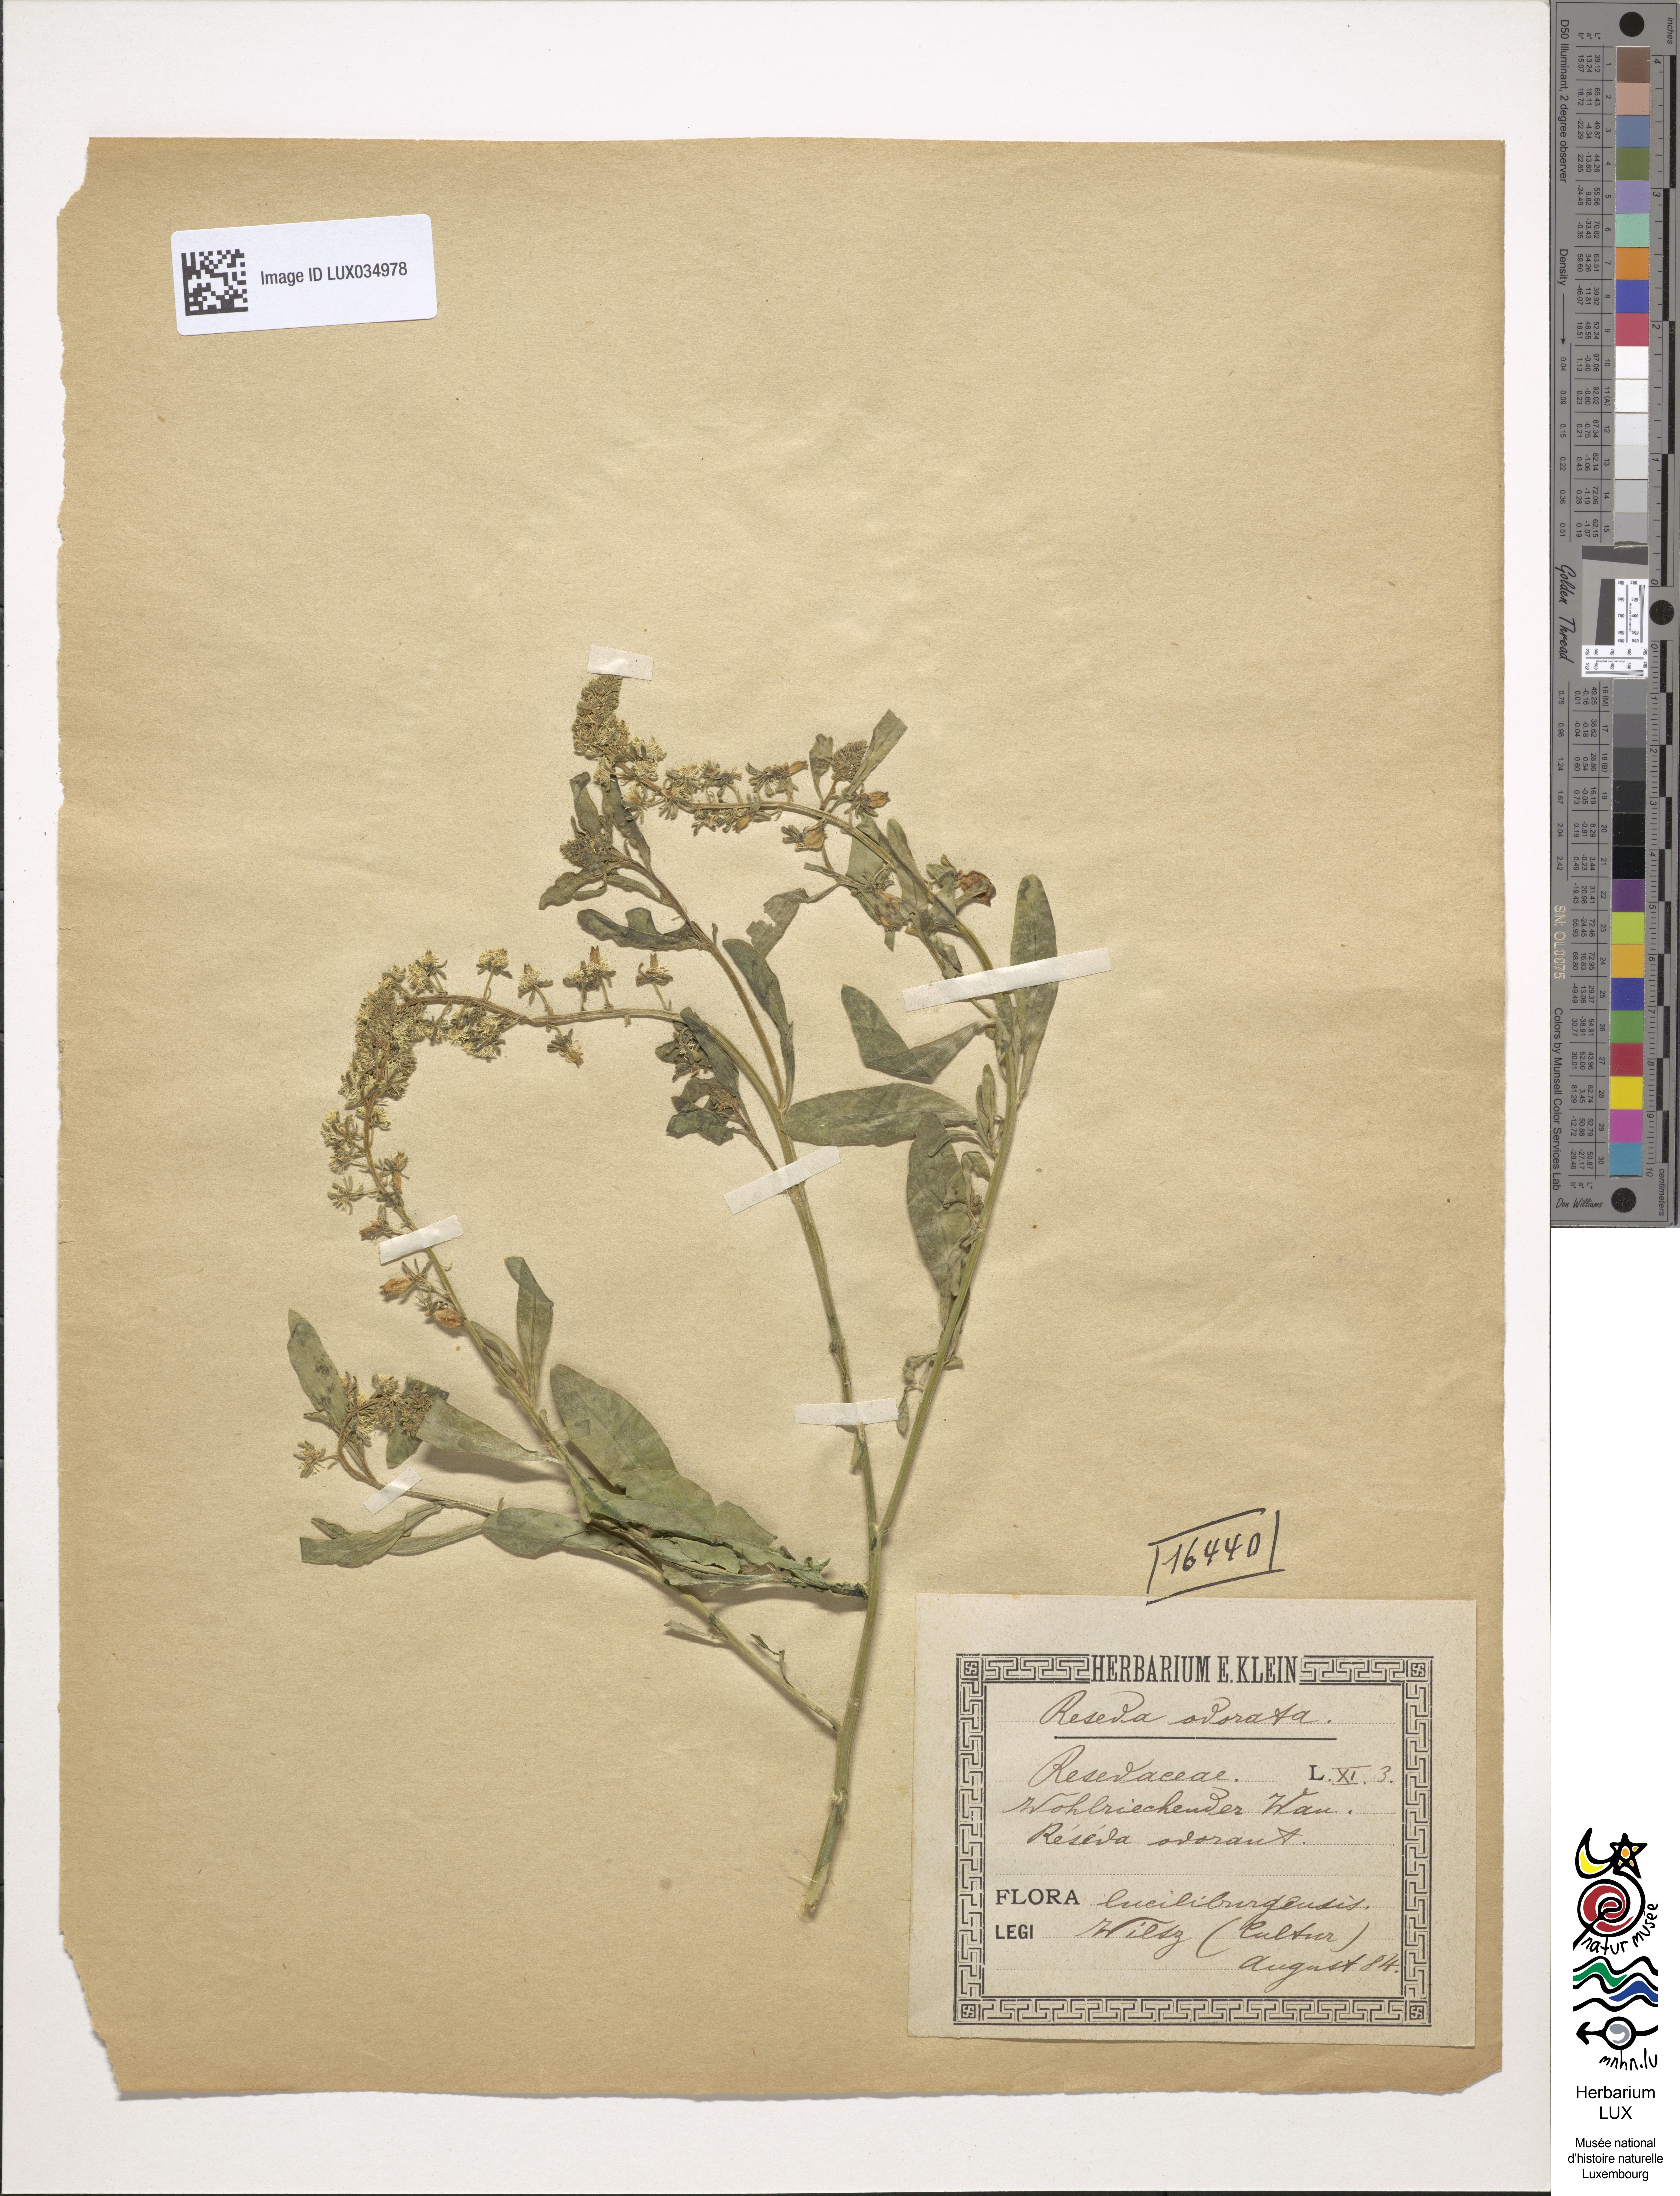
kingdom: Plantae
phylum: Tracheophyta
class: Magnoliopsida
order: Brassicales
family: Resedaceae
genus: Reseda
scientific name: Reseda odorata
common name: Garden mignonette
